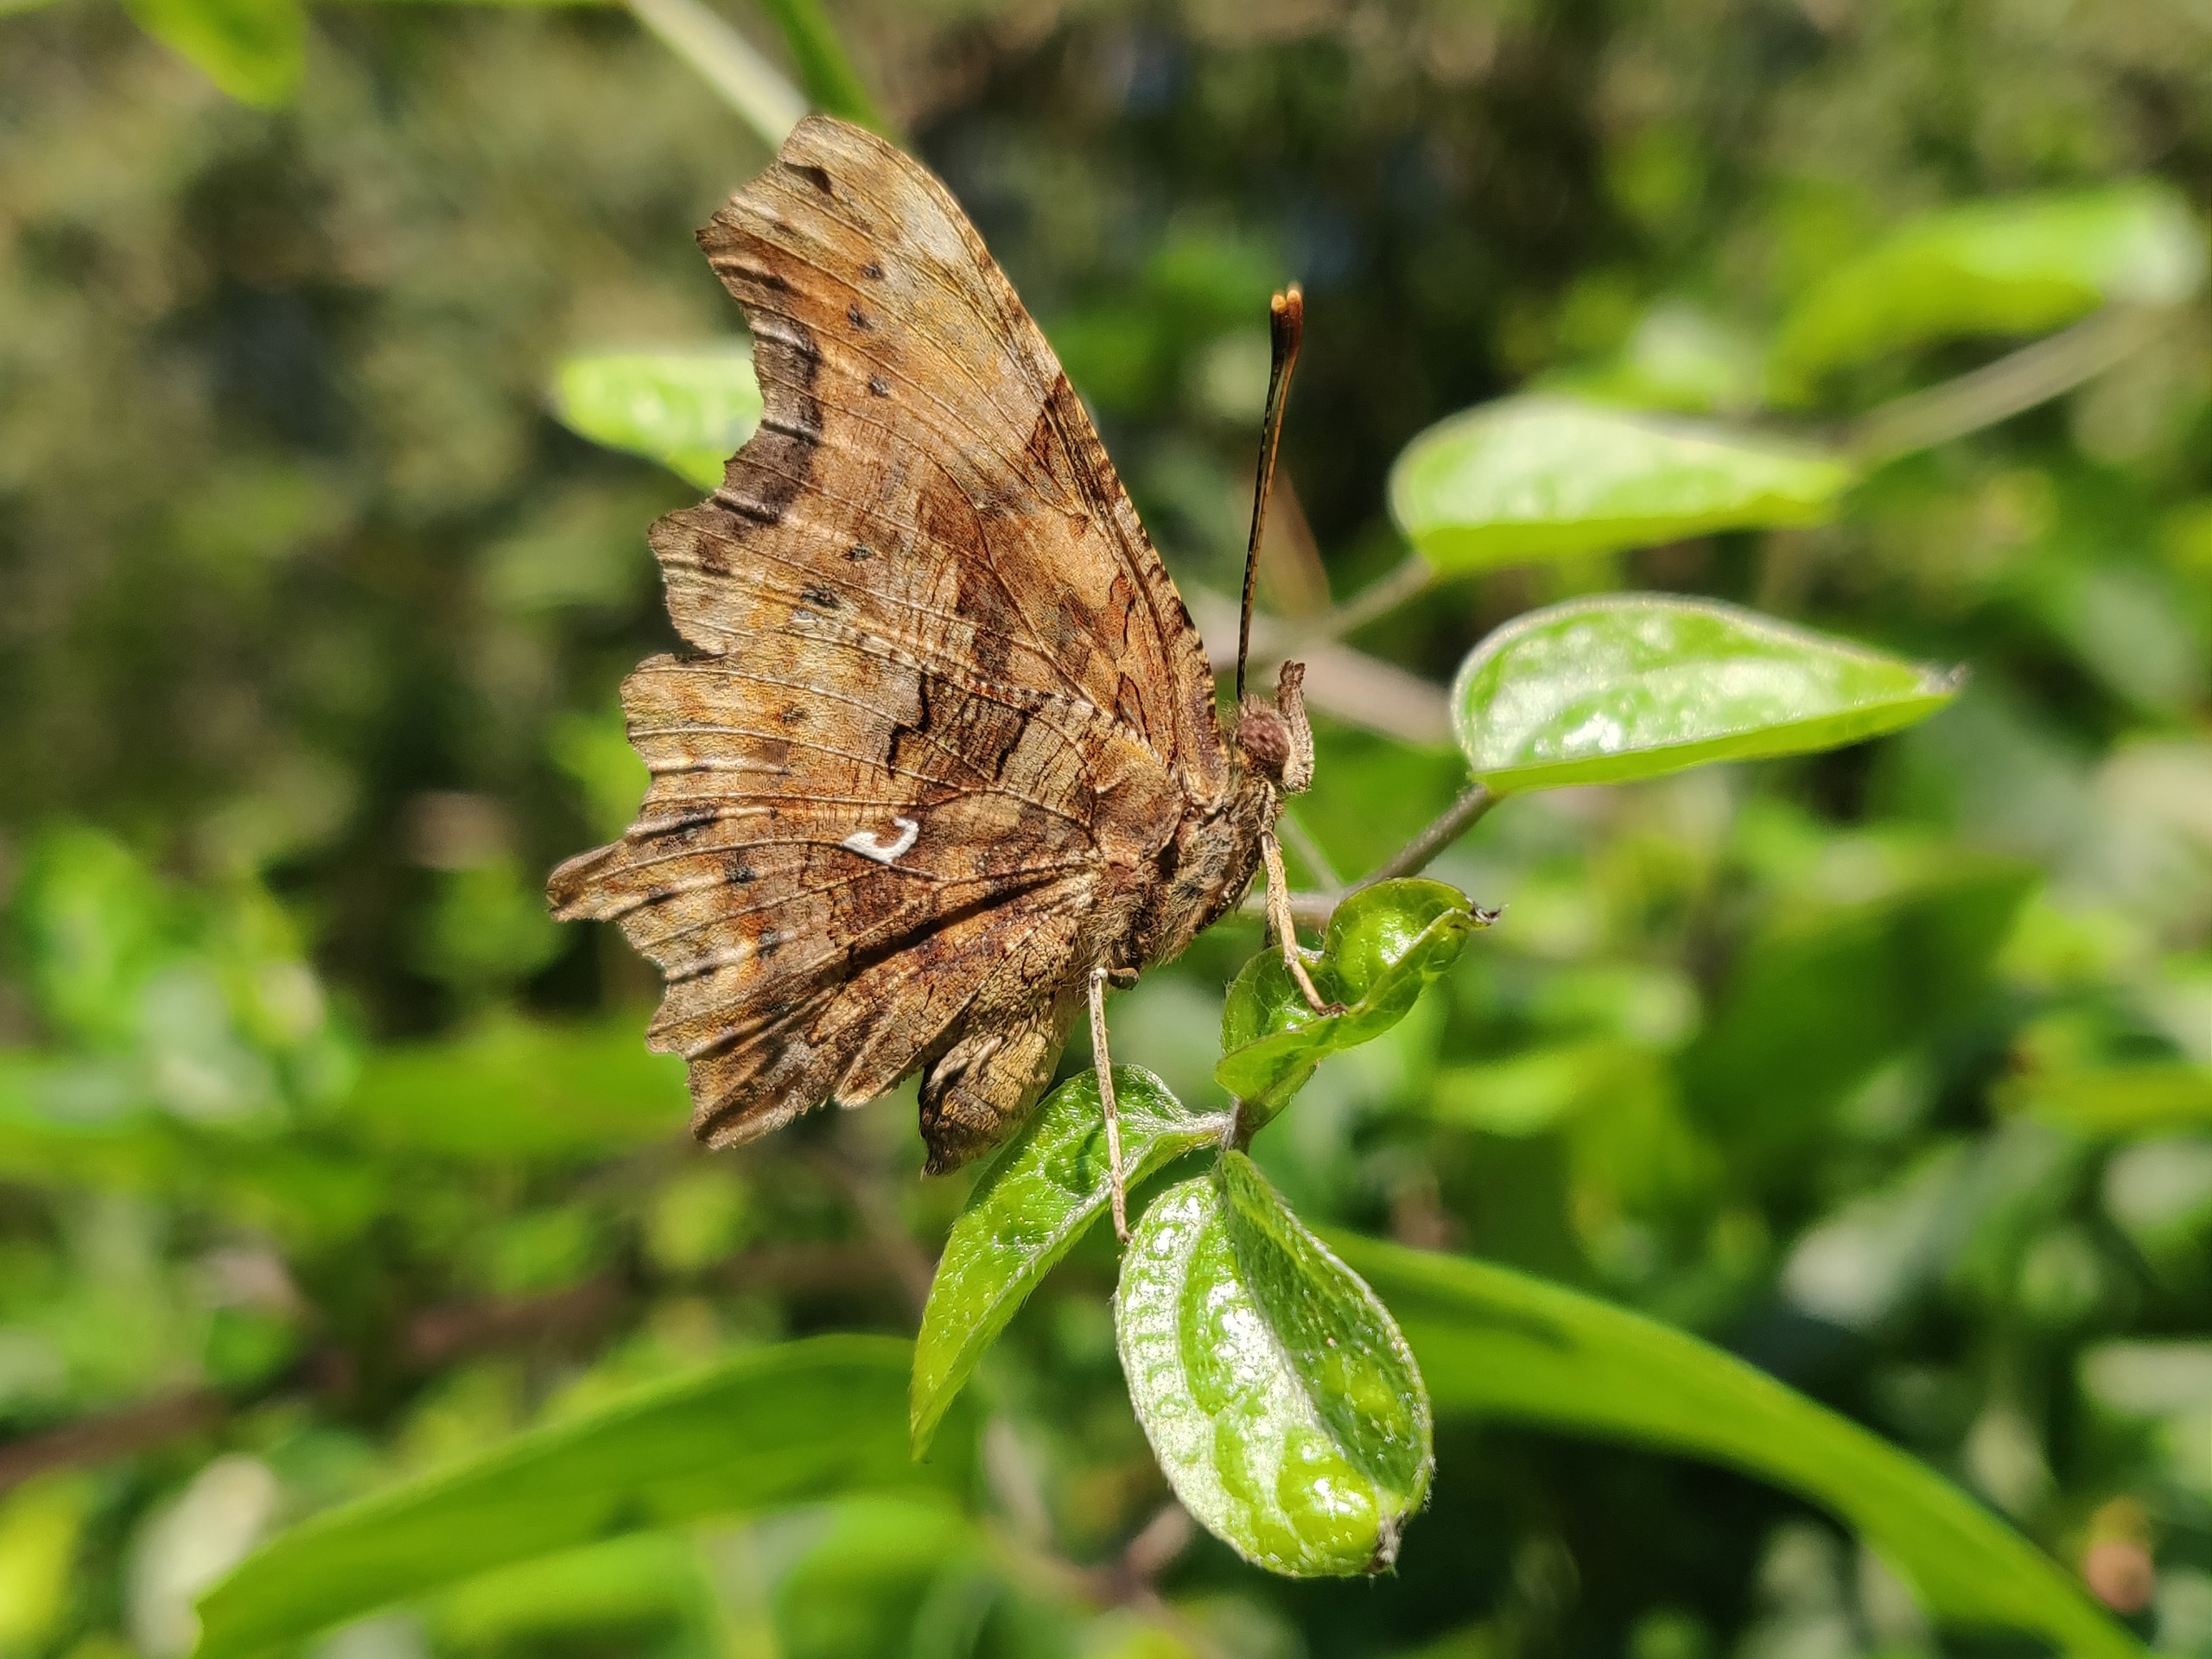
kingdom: Animalia
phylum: Arthropoda
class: Insecta
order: Lepidoptera
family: Nymphalidae
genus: Polygonia
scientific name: Polygonia c-album
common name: Det hvide C
